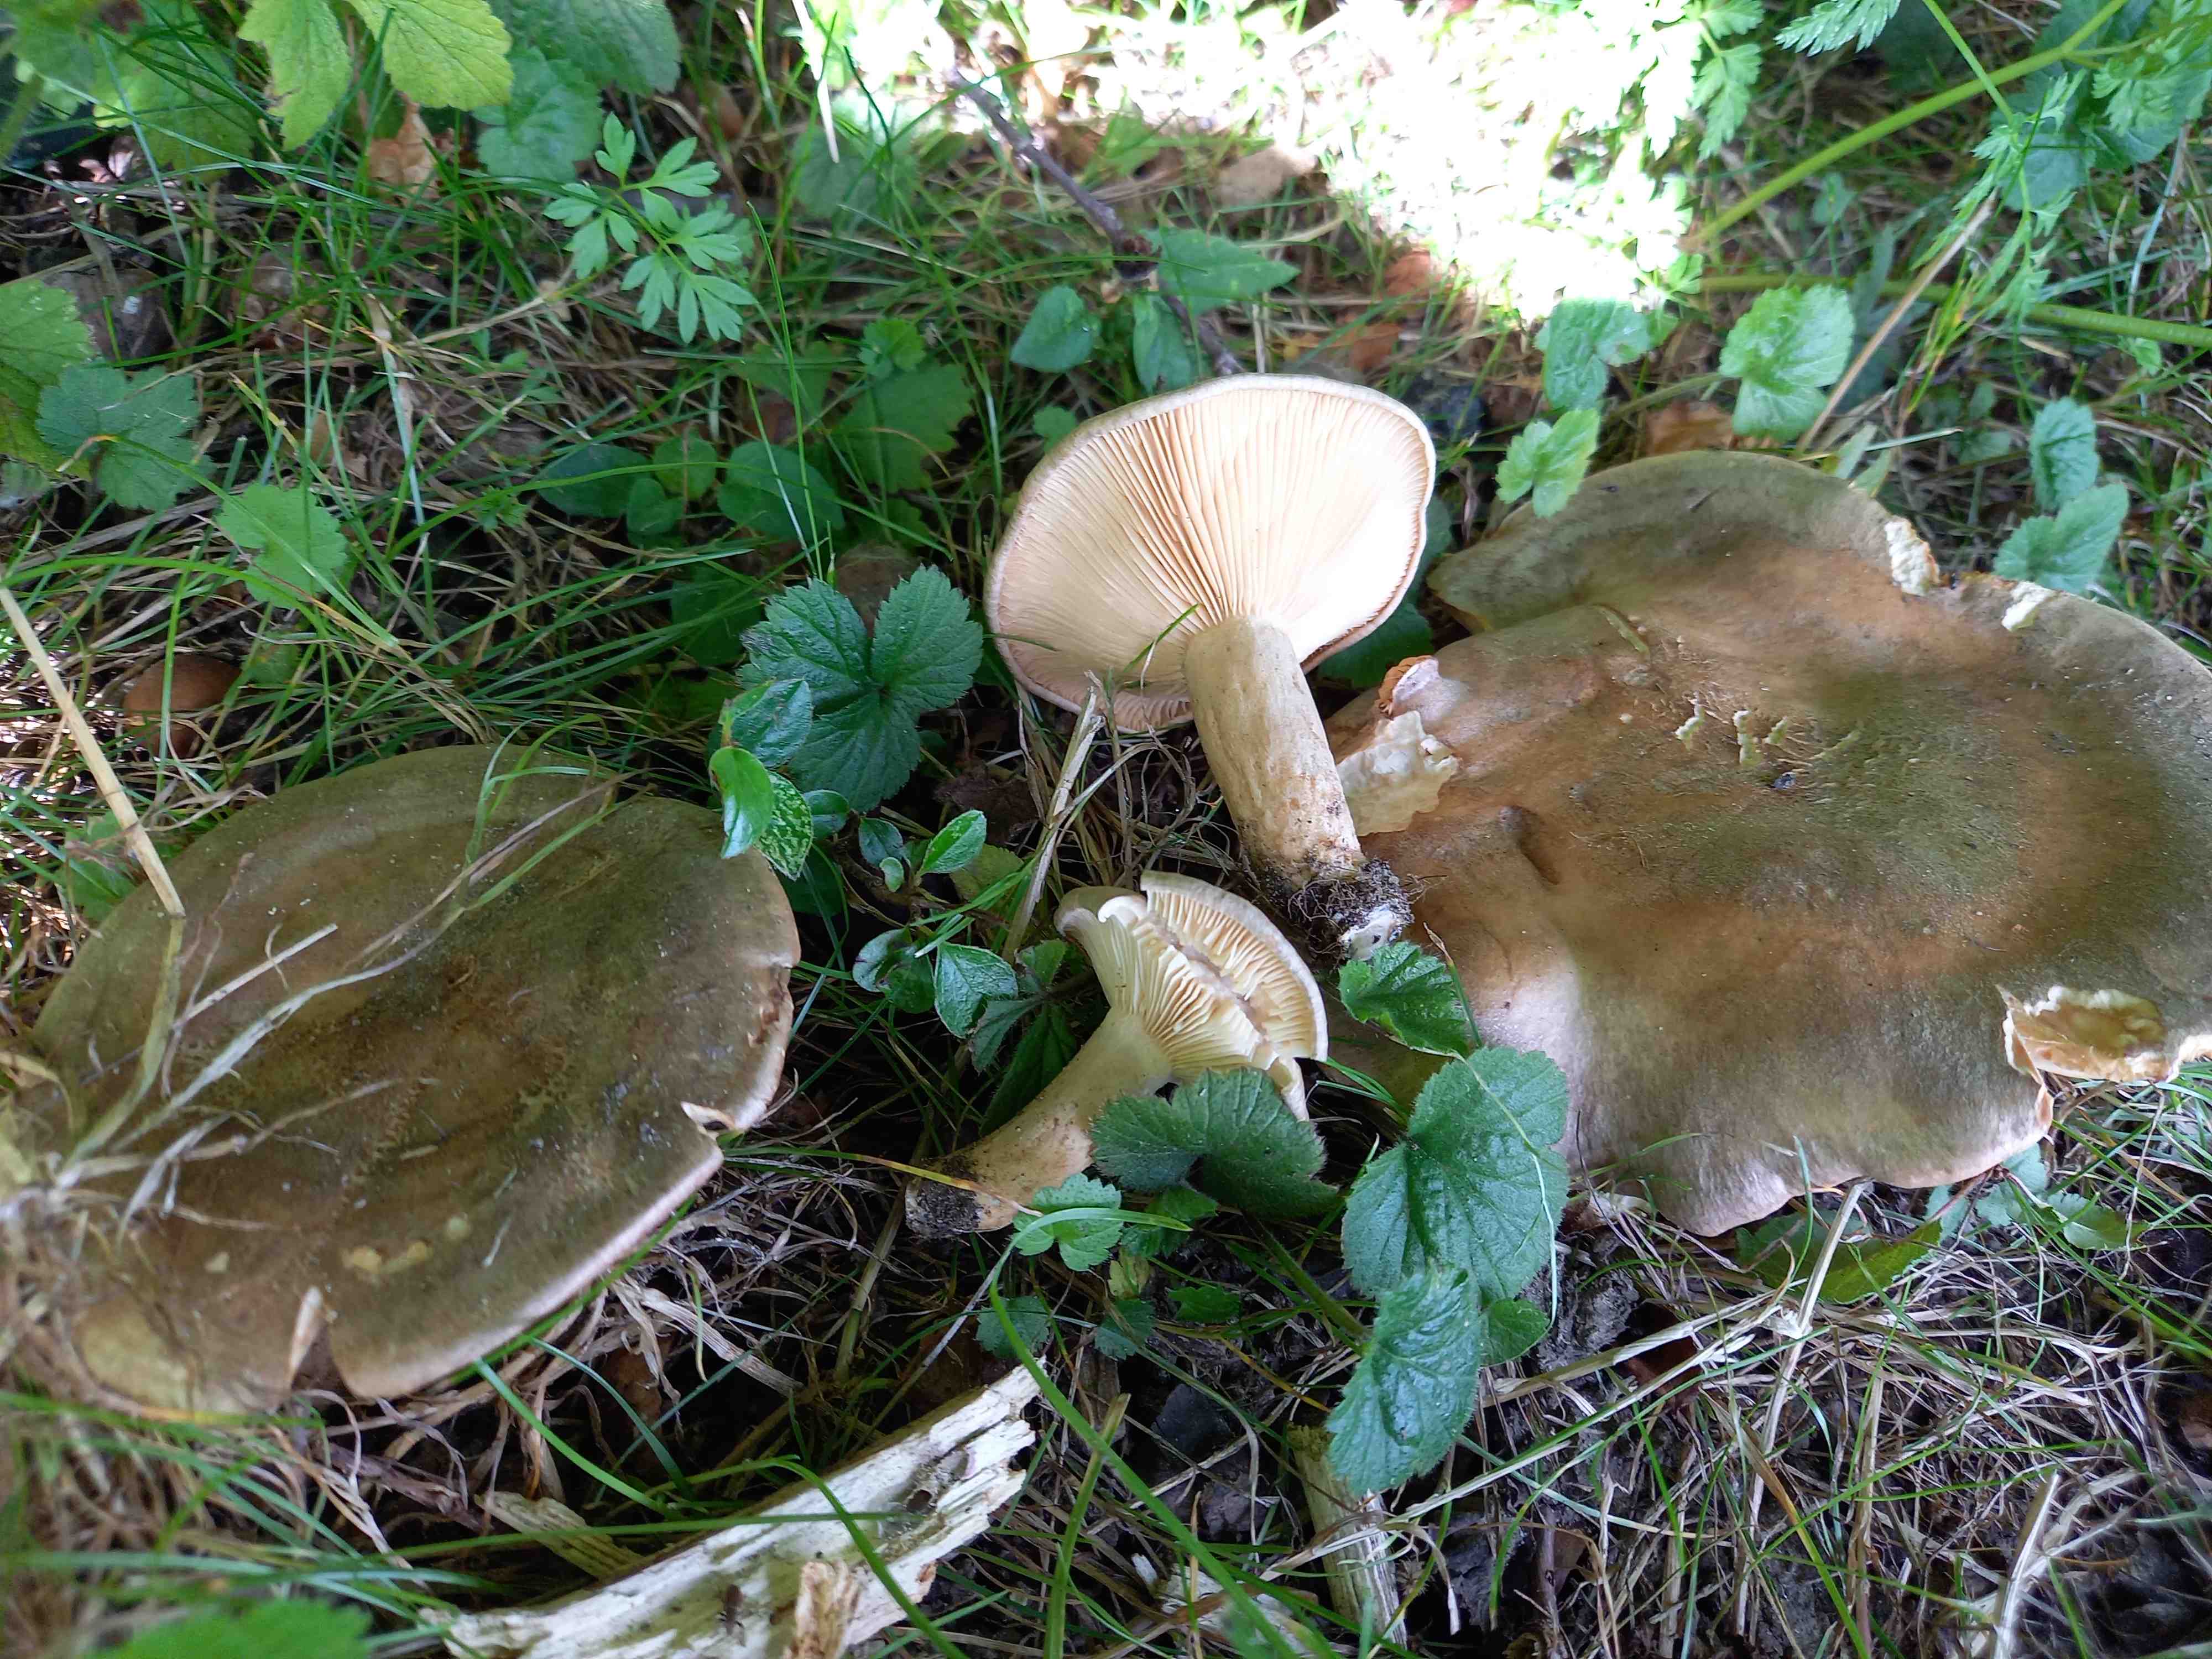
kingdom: Fungi
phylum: Basidiomycota
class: Agaricomycetes
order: Russulales
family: Russulaceae
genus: Lactarius
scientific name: Lactarius pyrogalus
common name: hassel-mælkehat
